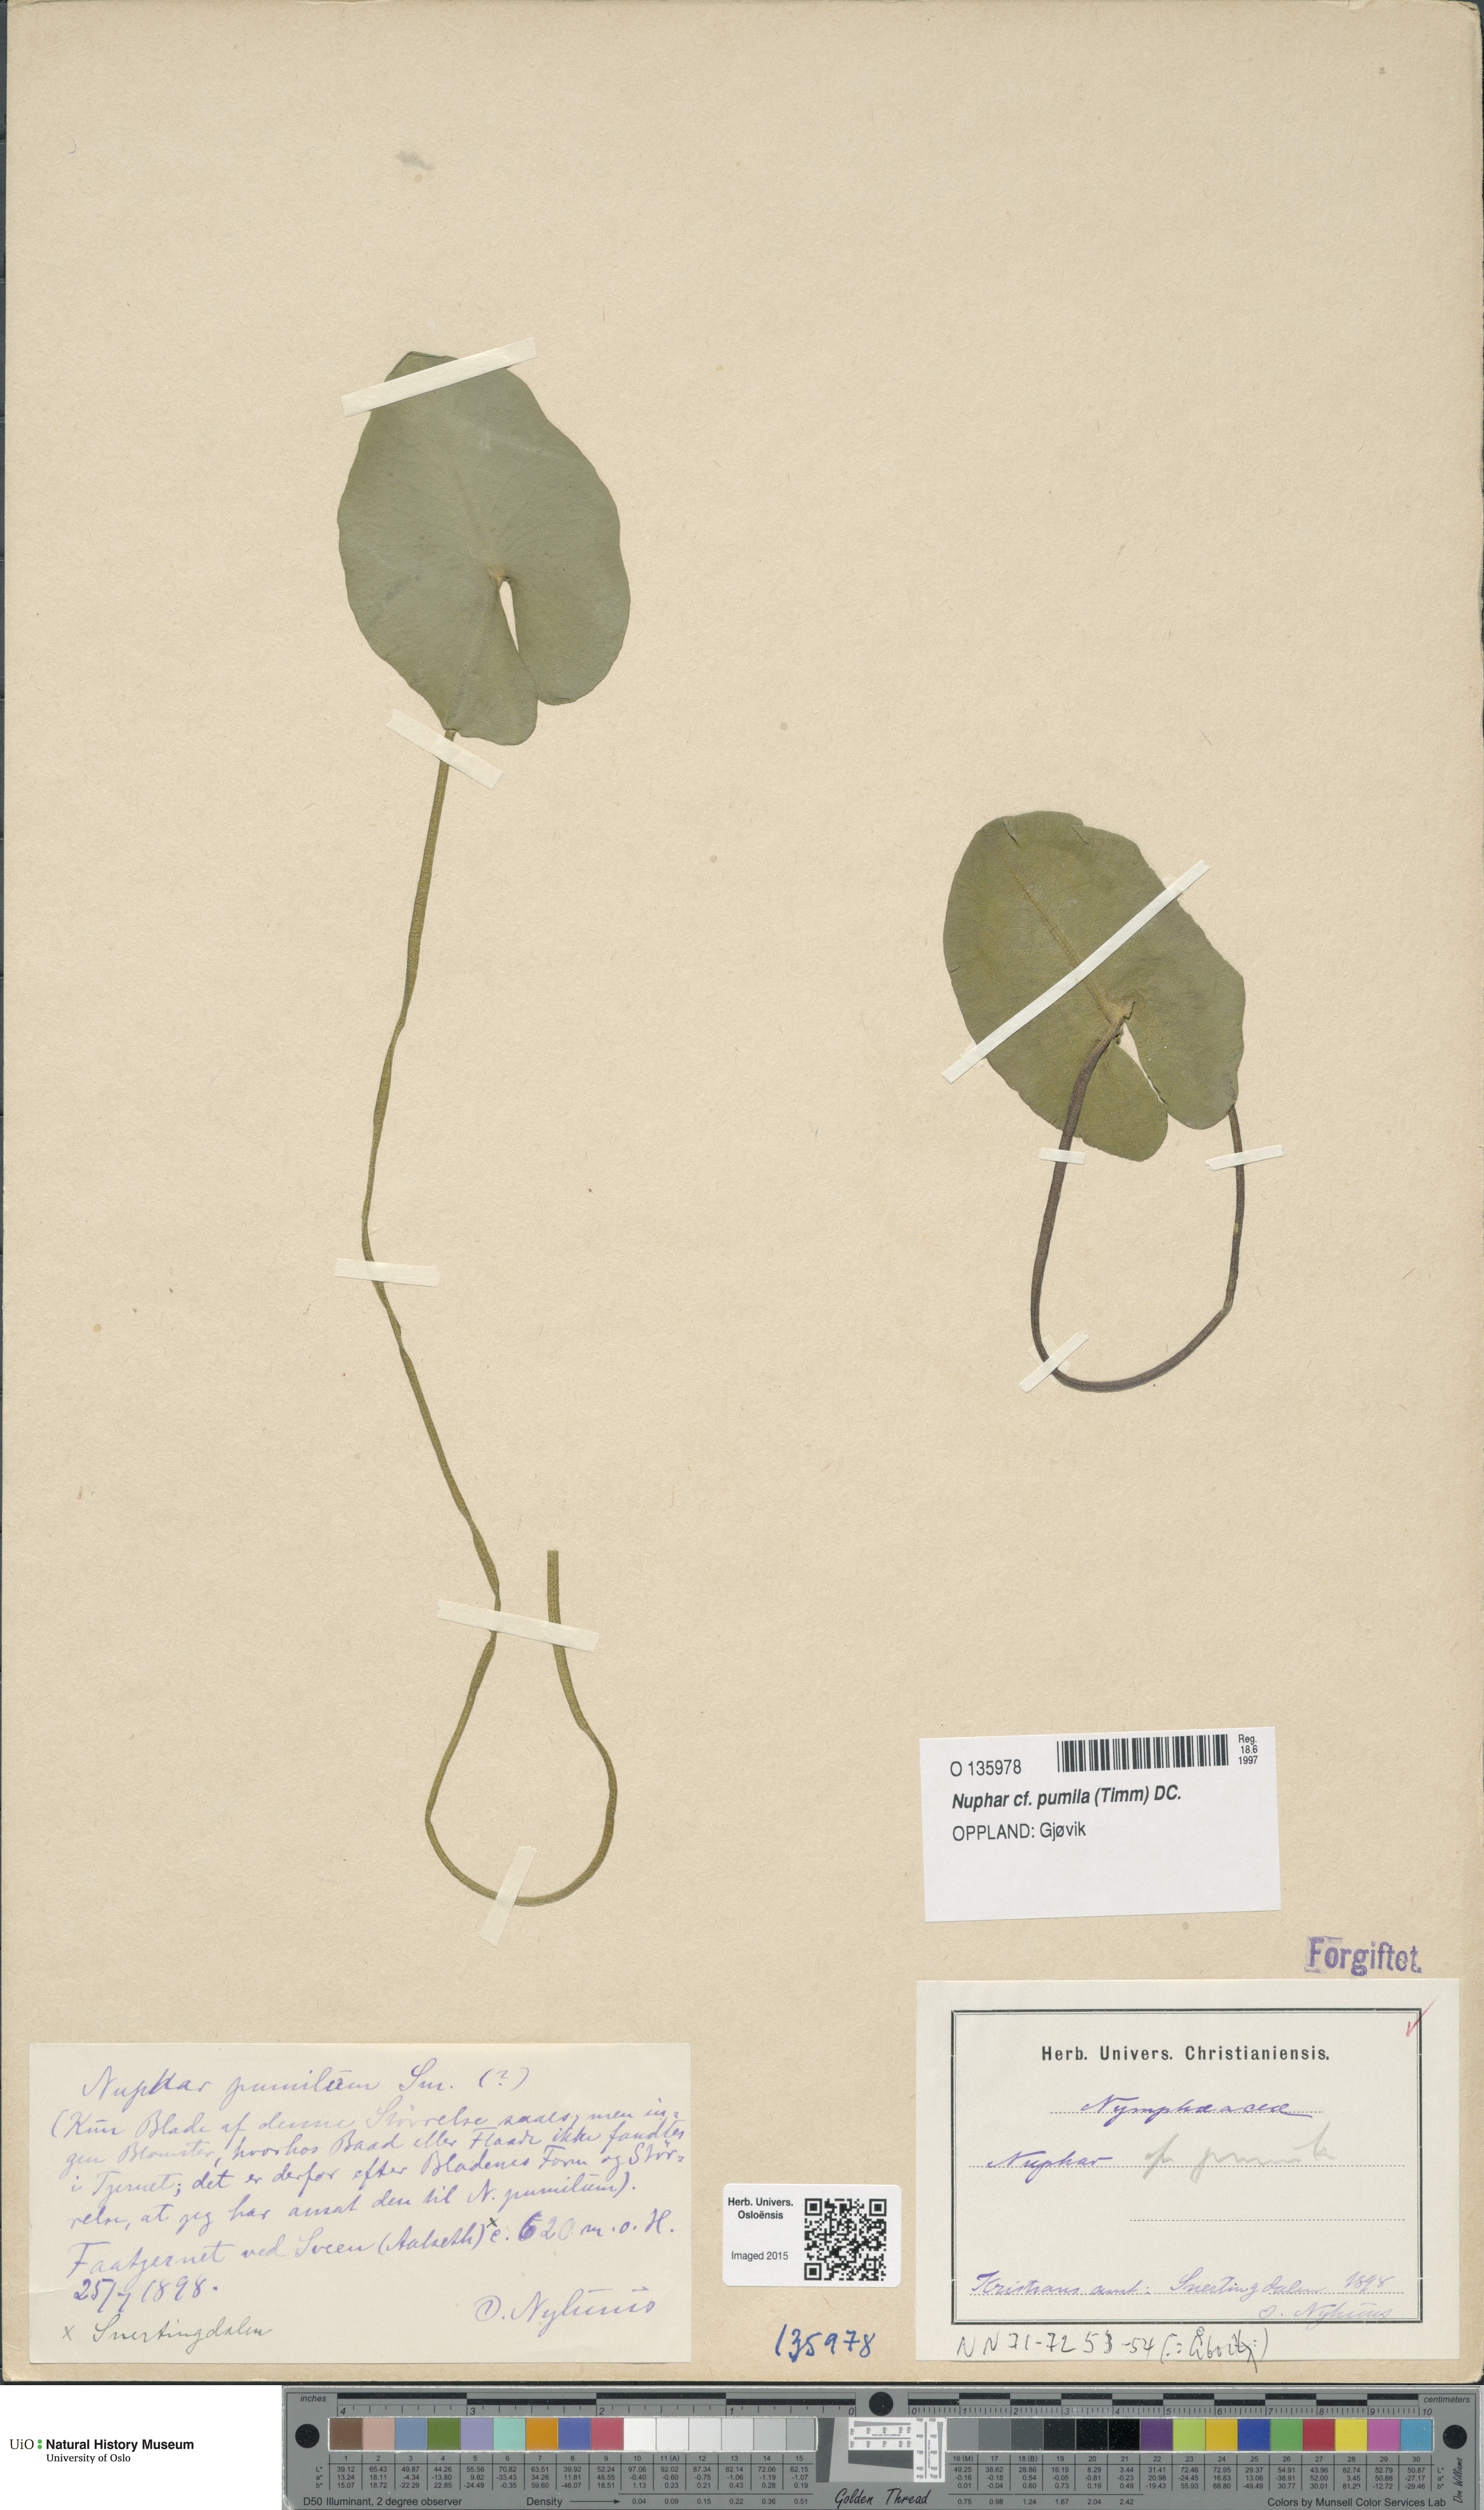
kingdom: Plantae
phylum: Tracheophyta
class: Magnoliopsida
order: Nymphaeales
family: Nymphaeaceae
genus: Nuphar
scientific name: Nuphar pumila
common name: Least water-lily
